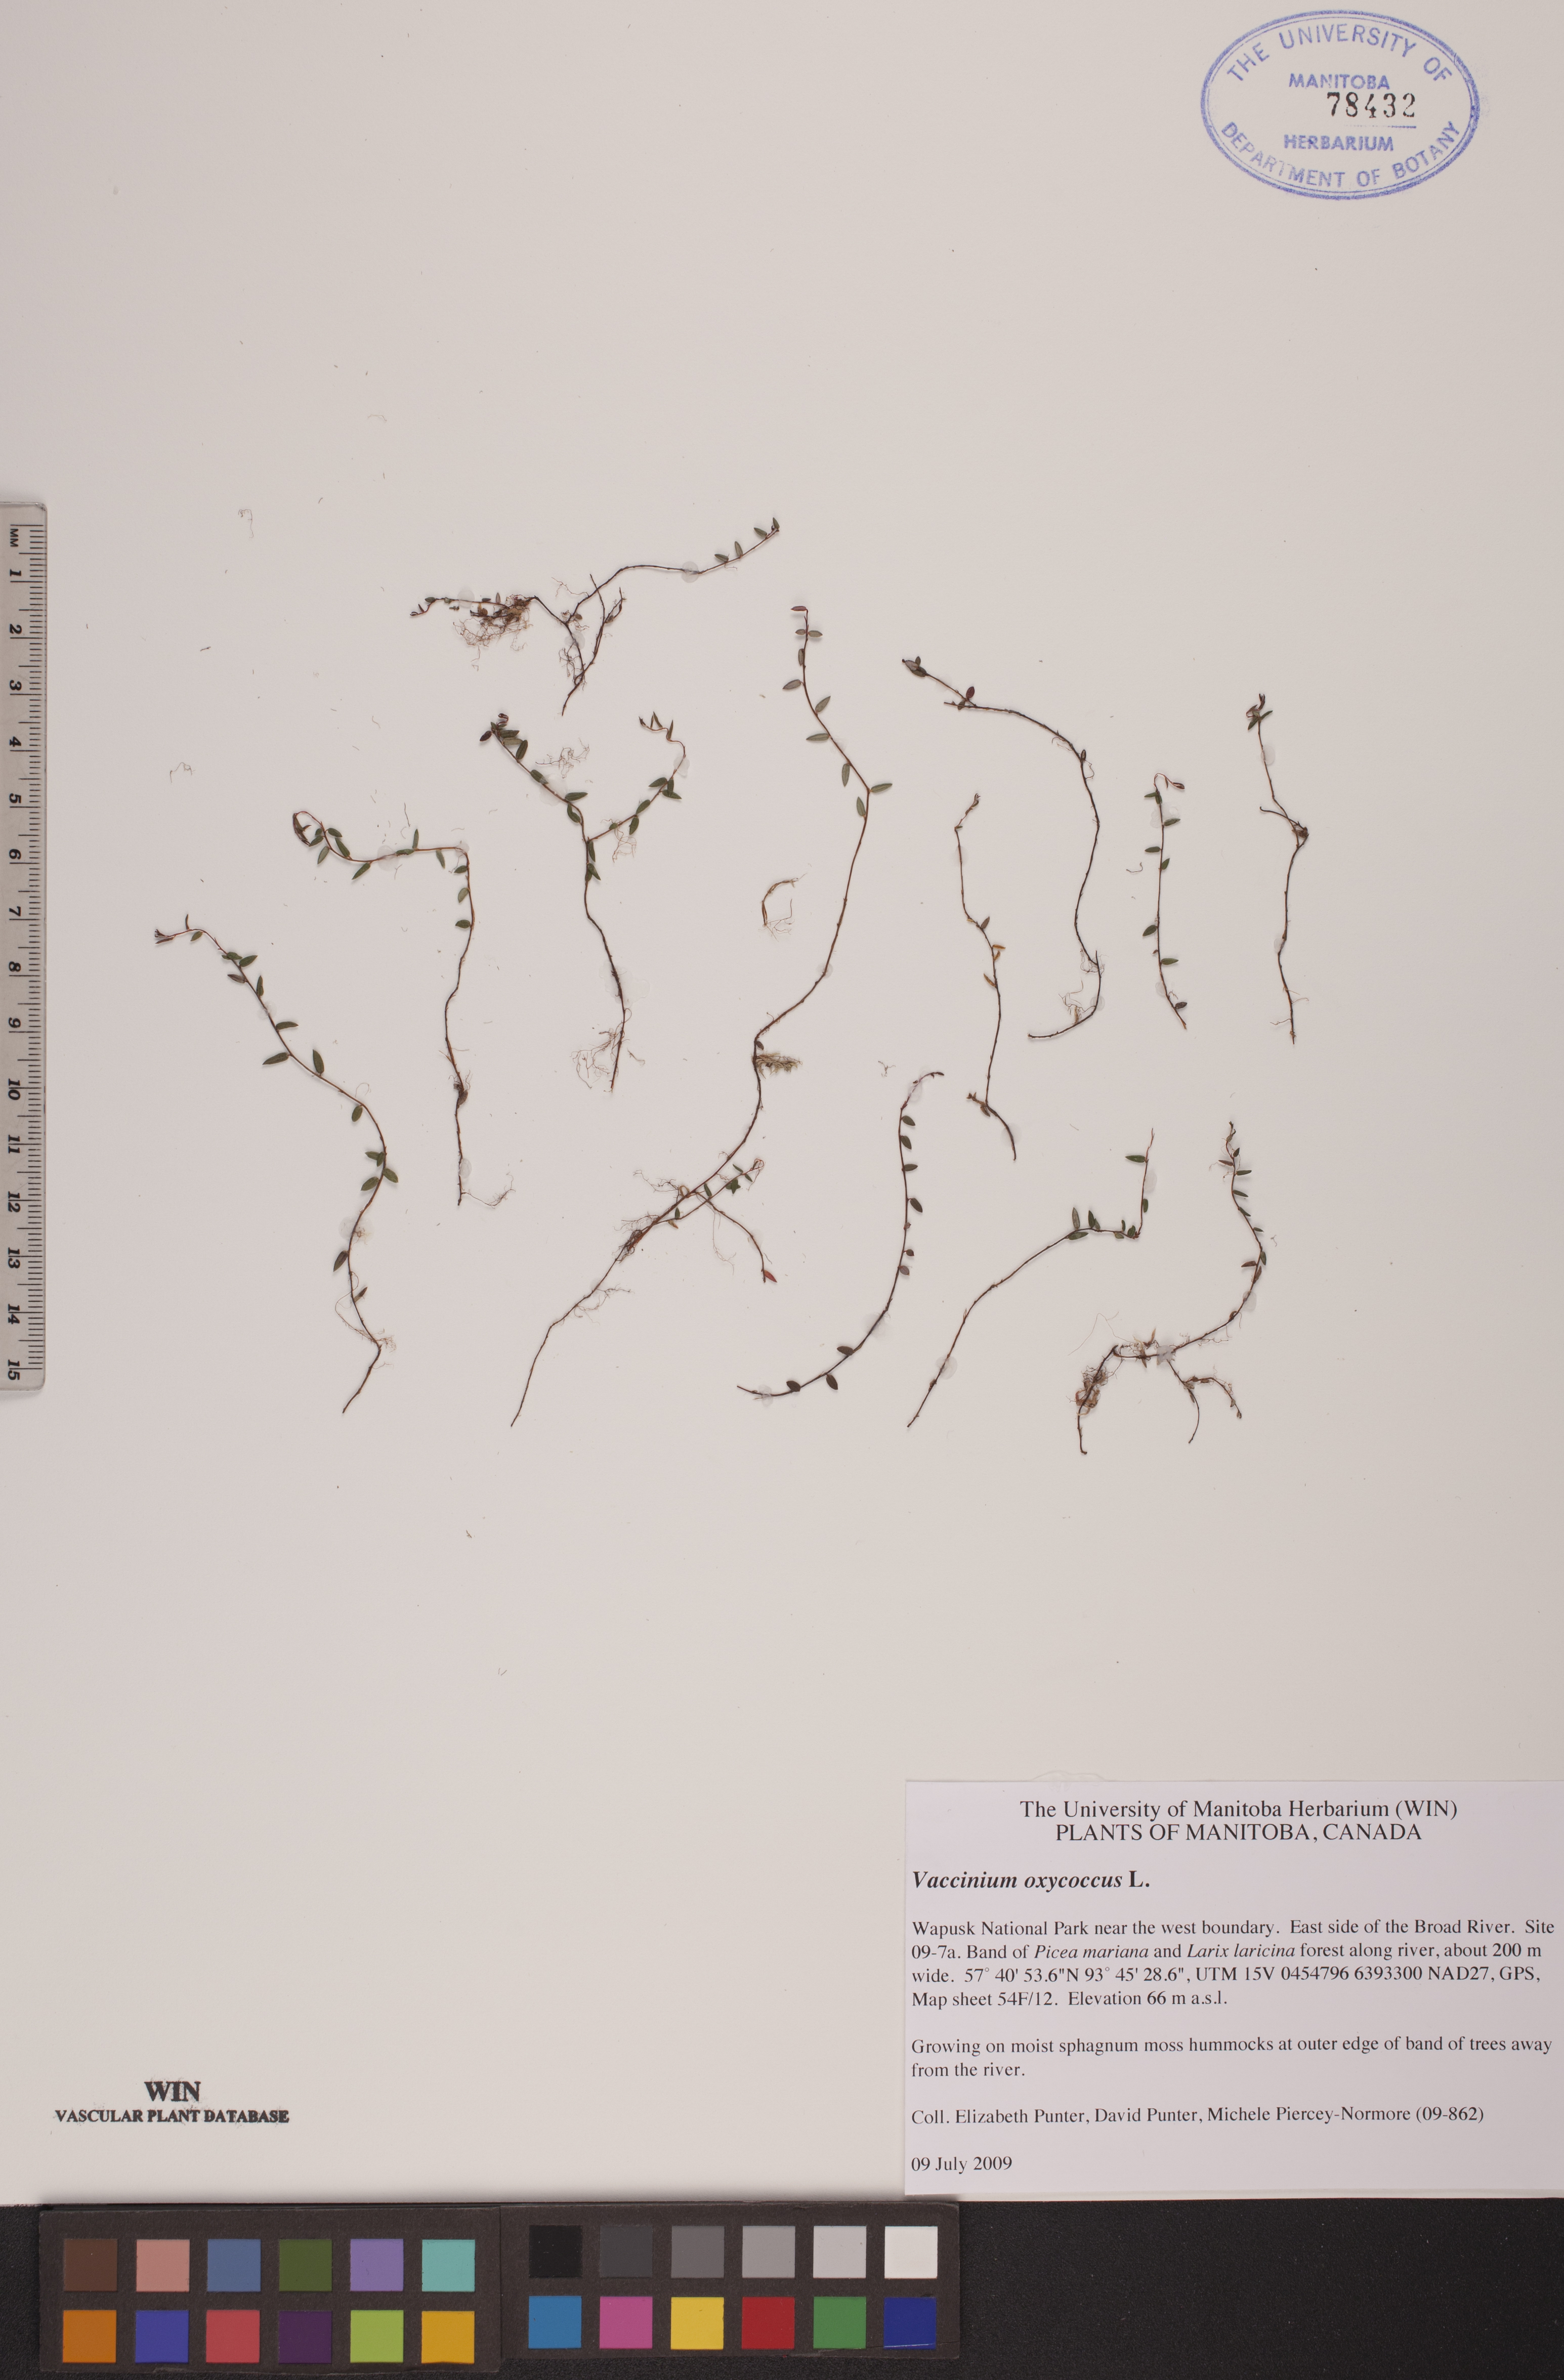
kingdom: Plantae
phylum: Tracheophyta
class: Magnoliopsida
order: Ericales
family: Ericaceae
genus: Vaccinium
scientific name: Vaccinium oxycoccos
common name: Cranberry
